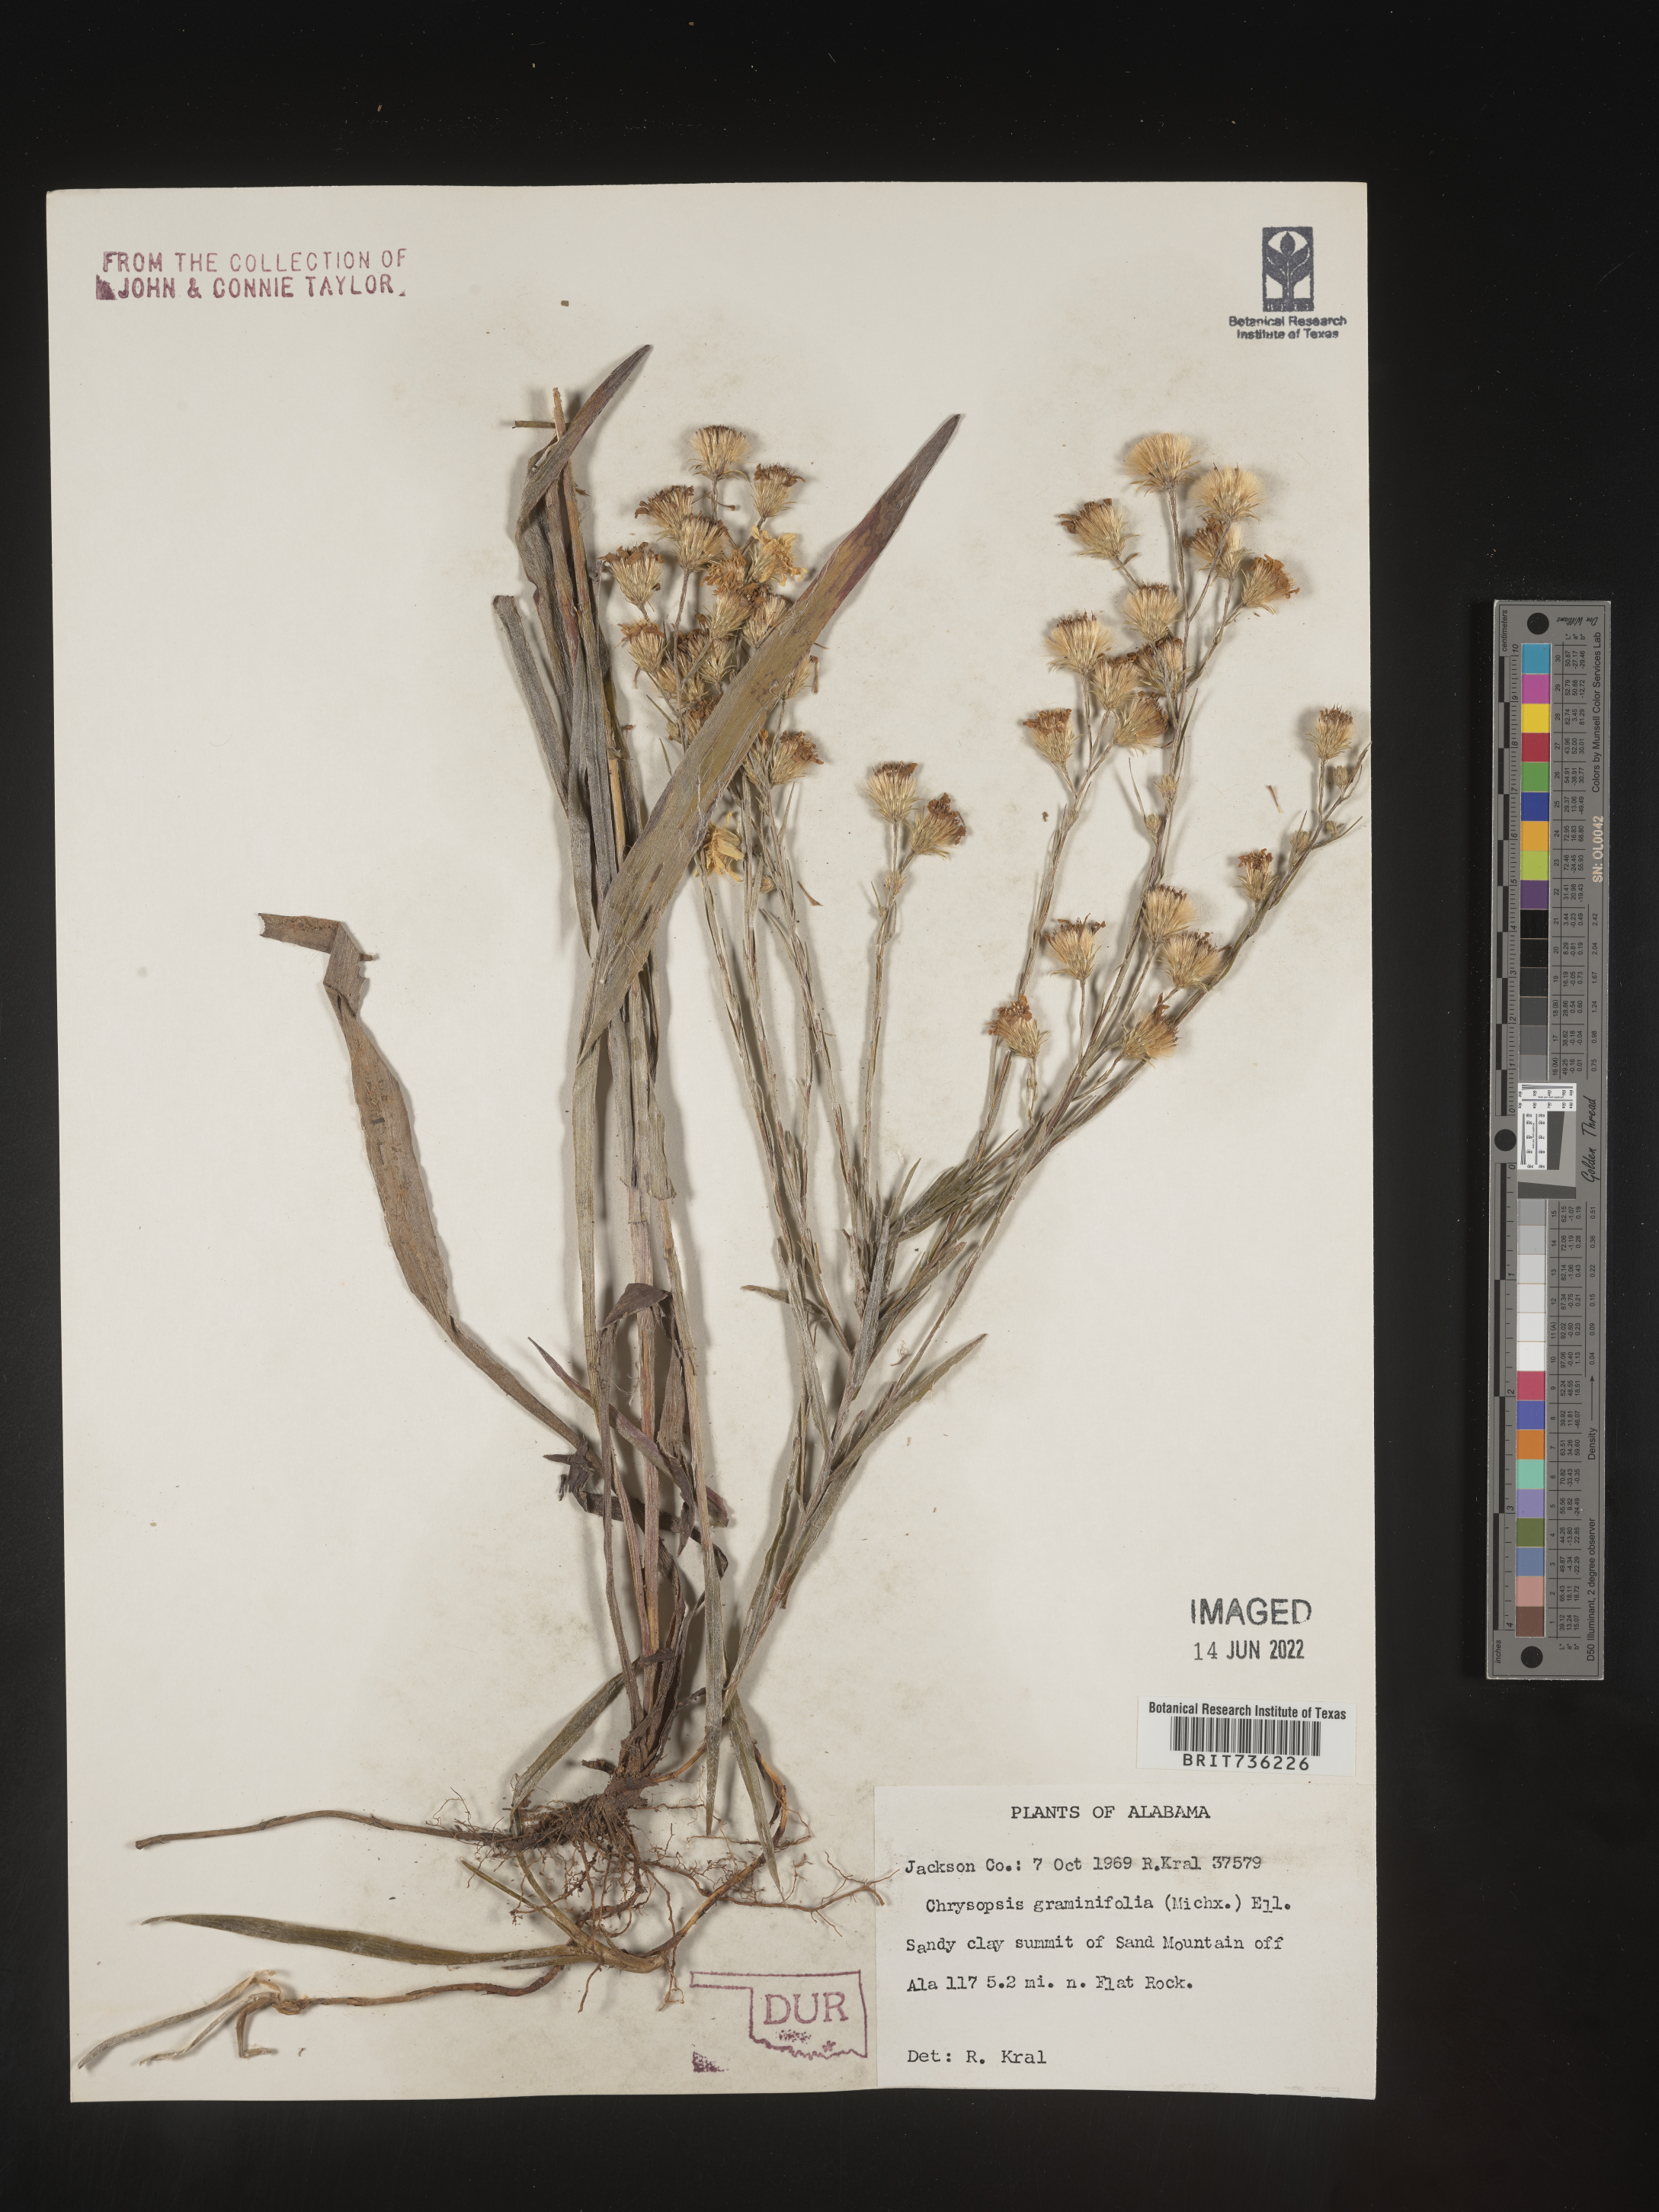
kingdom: Plantae
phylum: Tracheophyta
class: Magnoliopsida
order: Asterales
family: Asteraceae
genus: Pityopsis
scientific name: Pityopsis graminifolia
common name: Grass-leaf golden-aster
